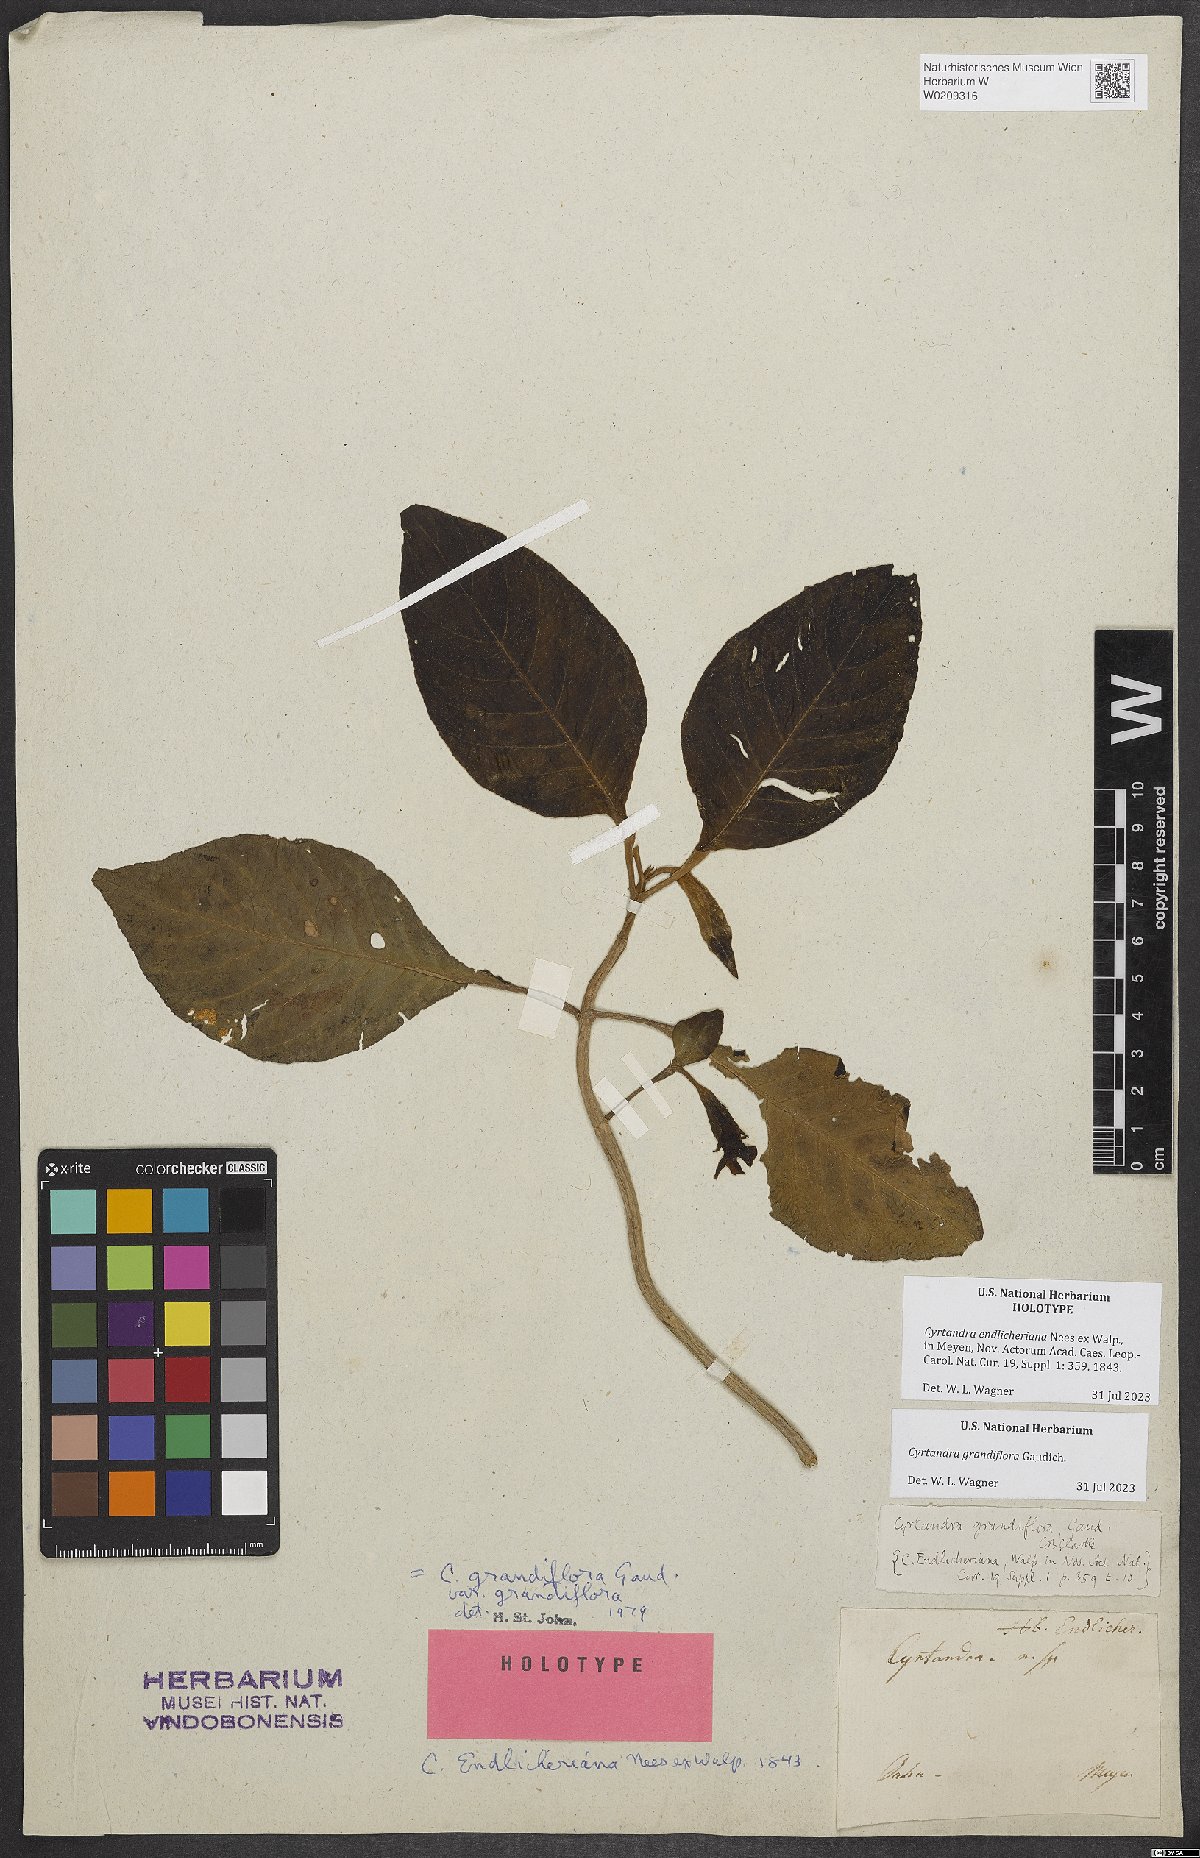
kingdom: Plantae
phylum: Tracheophyta
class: Magnoliopsida
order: Lamiales
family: Gesneriaceae
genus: Cyrtandra
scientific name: Cyrtandra grandiflora
